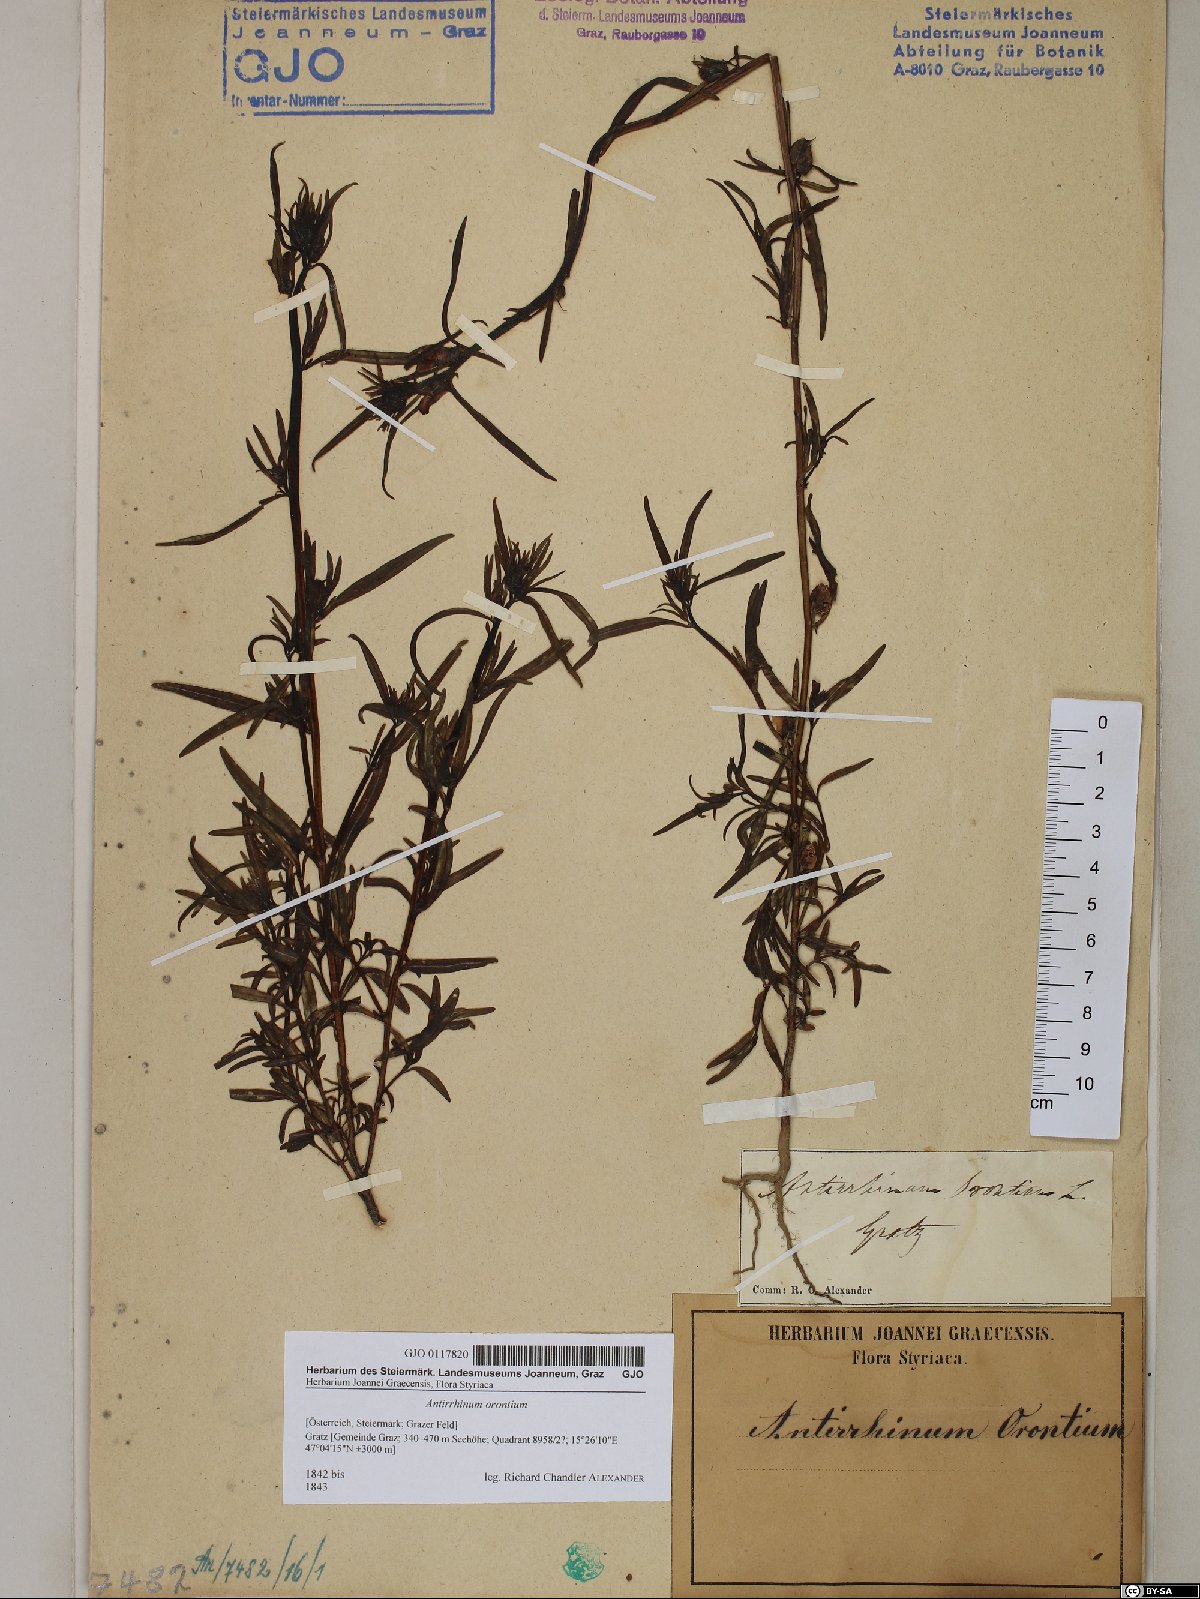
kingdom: Plantae
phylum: Tracheophyta
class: Magnoliopsida
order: Lamiales
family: Plantaginaceae
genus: Misopates
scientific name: Misopates orontium
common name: Weasel's-snout
